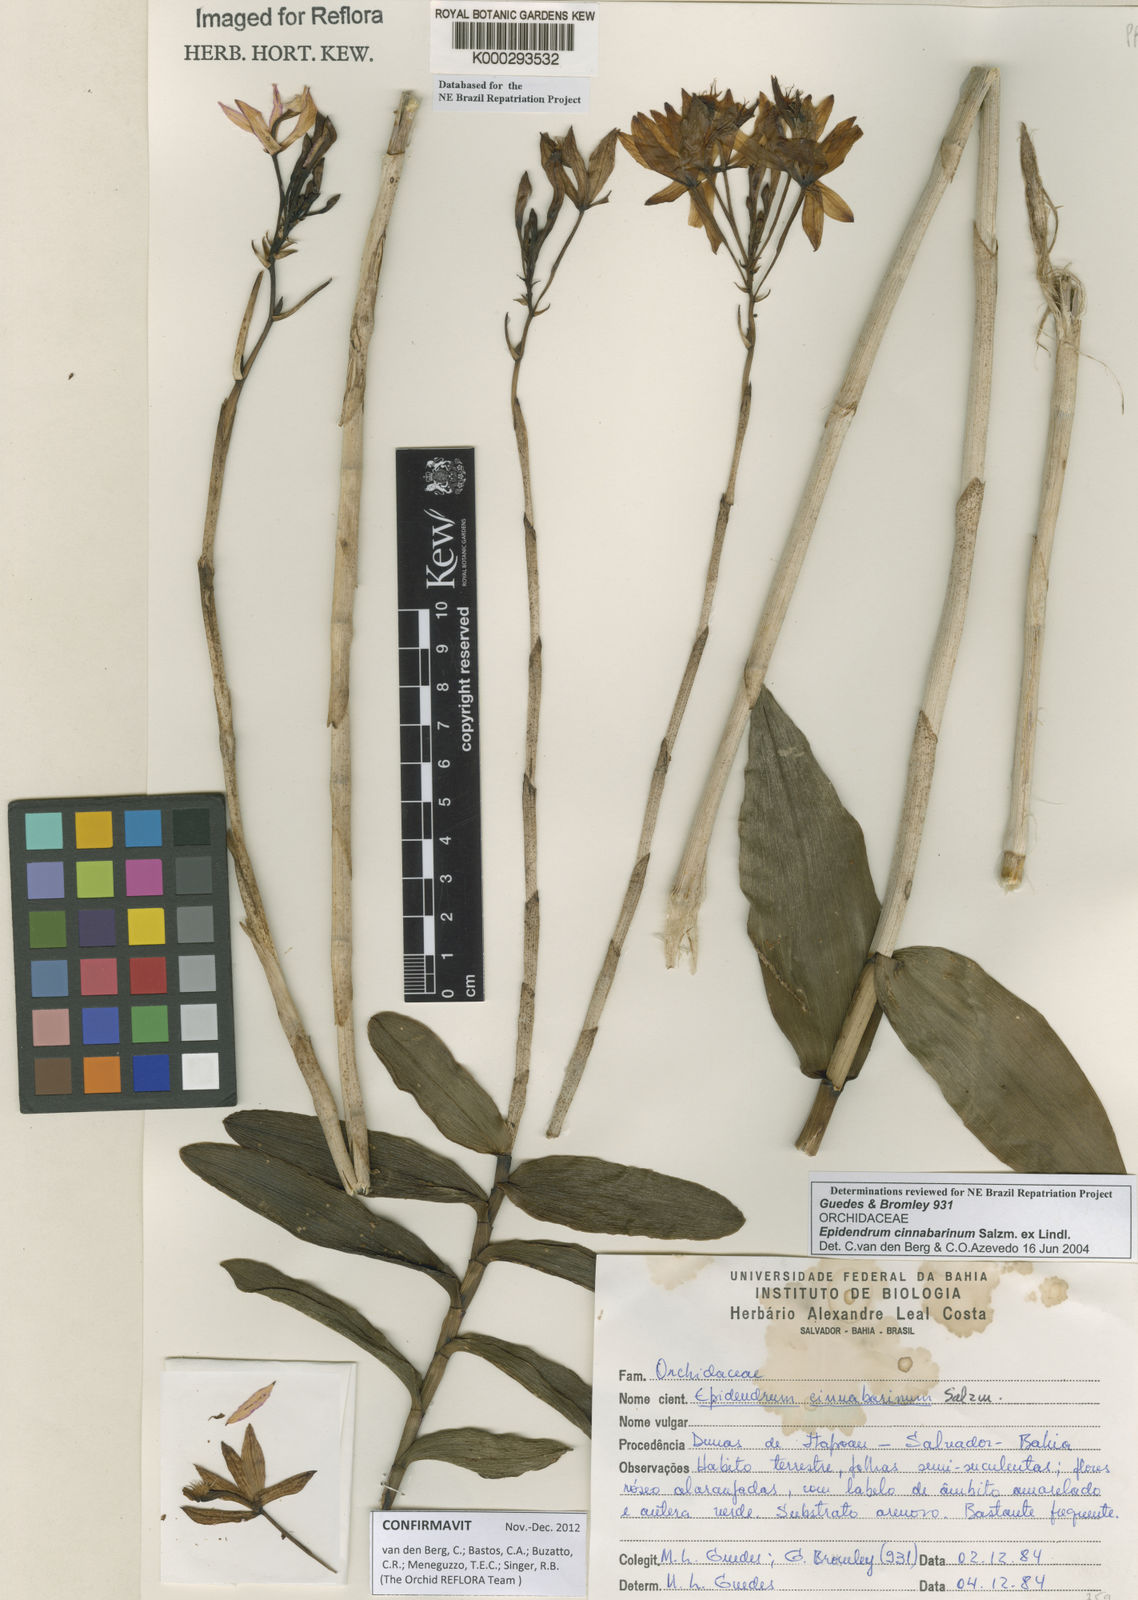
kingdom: Plantae
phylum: Tracheophyta
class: Liliopsida
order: Asparagales
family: Orchidaceae
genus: Epidendrum
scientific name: Epidendrum cinnabarinum
